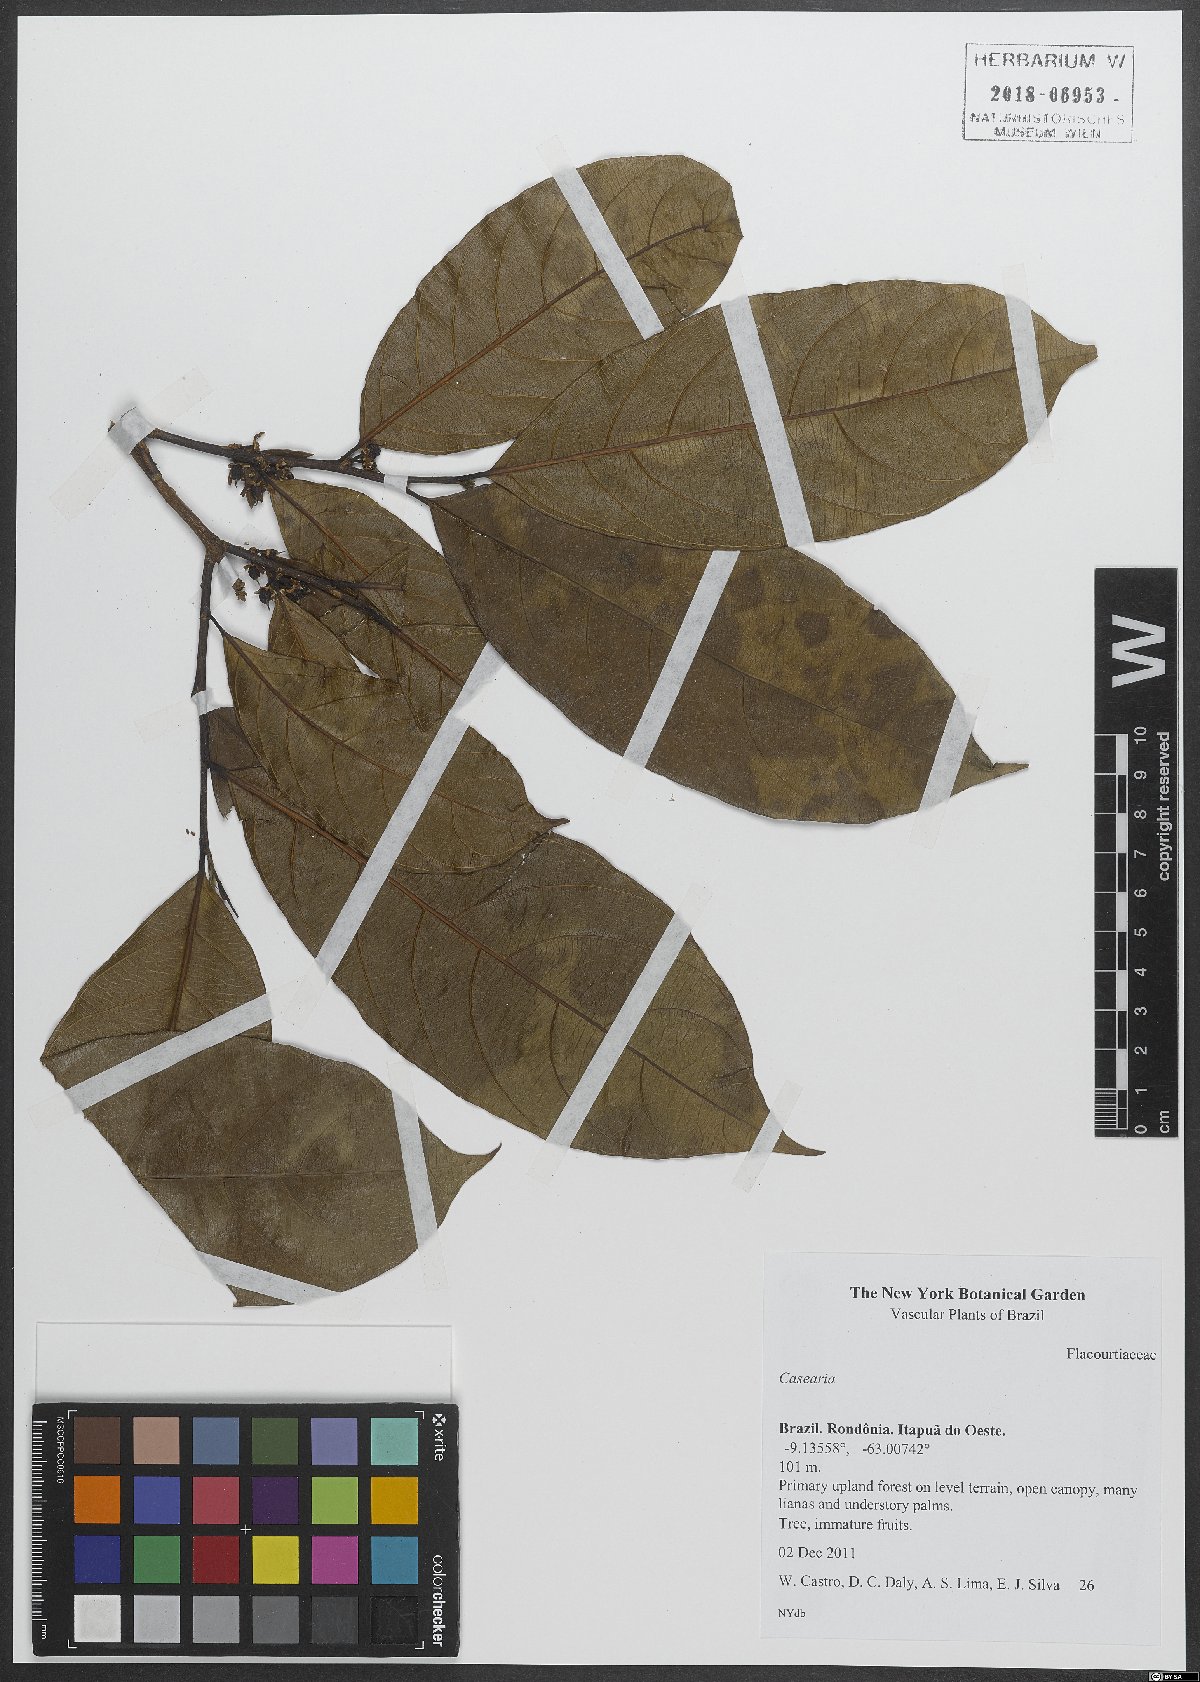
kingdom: Plantae
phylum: Tracheophyta
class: Magnoliopsida
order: Malpighiales
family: Salicaceae
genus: Casearia
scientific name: Casearia
